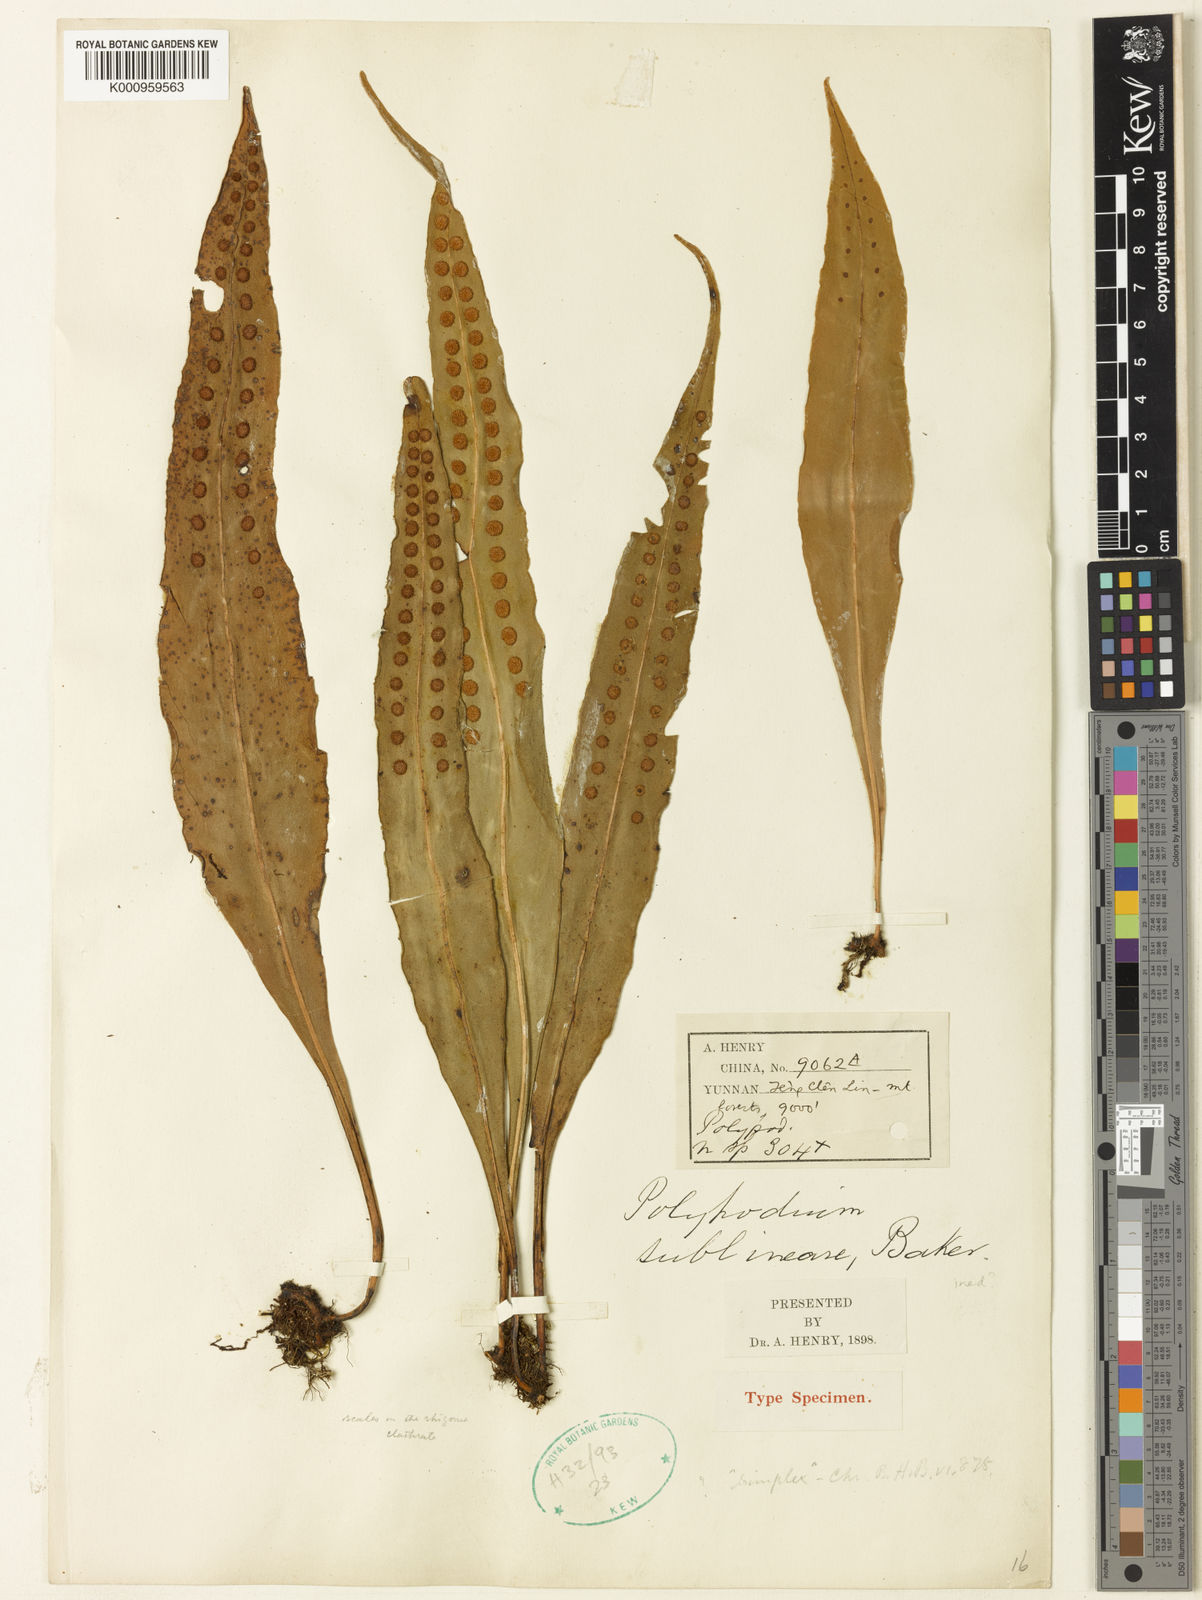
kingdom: Plantae
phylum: Tracheophyta
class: Polypodiopsida
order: Polypodiales
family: Polypodiaceae
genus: Lepisorus
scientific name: Lepisorus sublinearis
